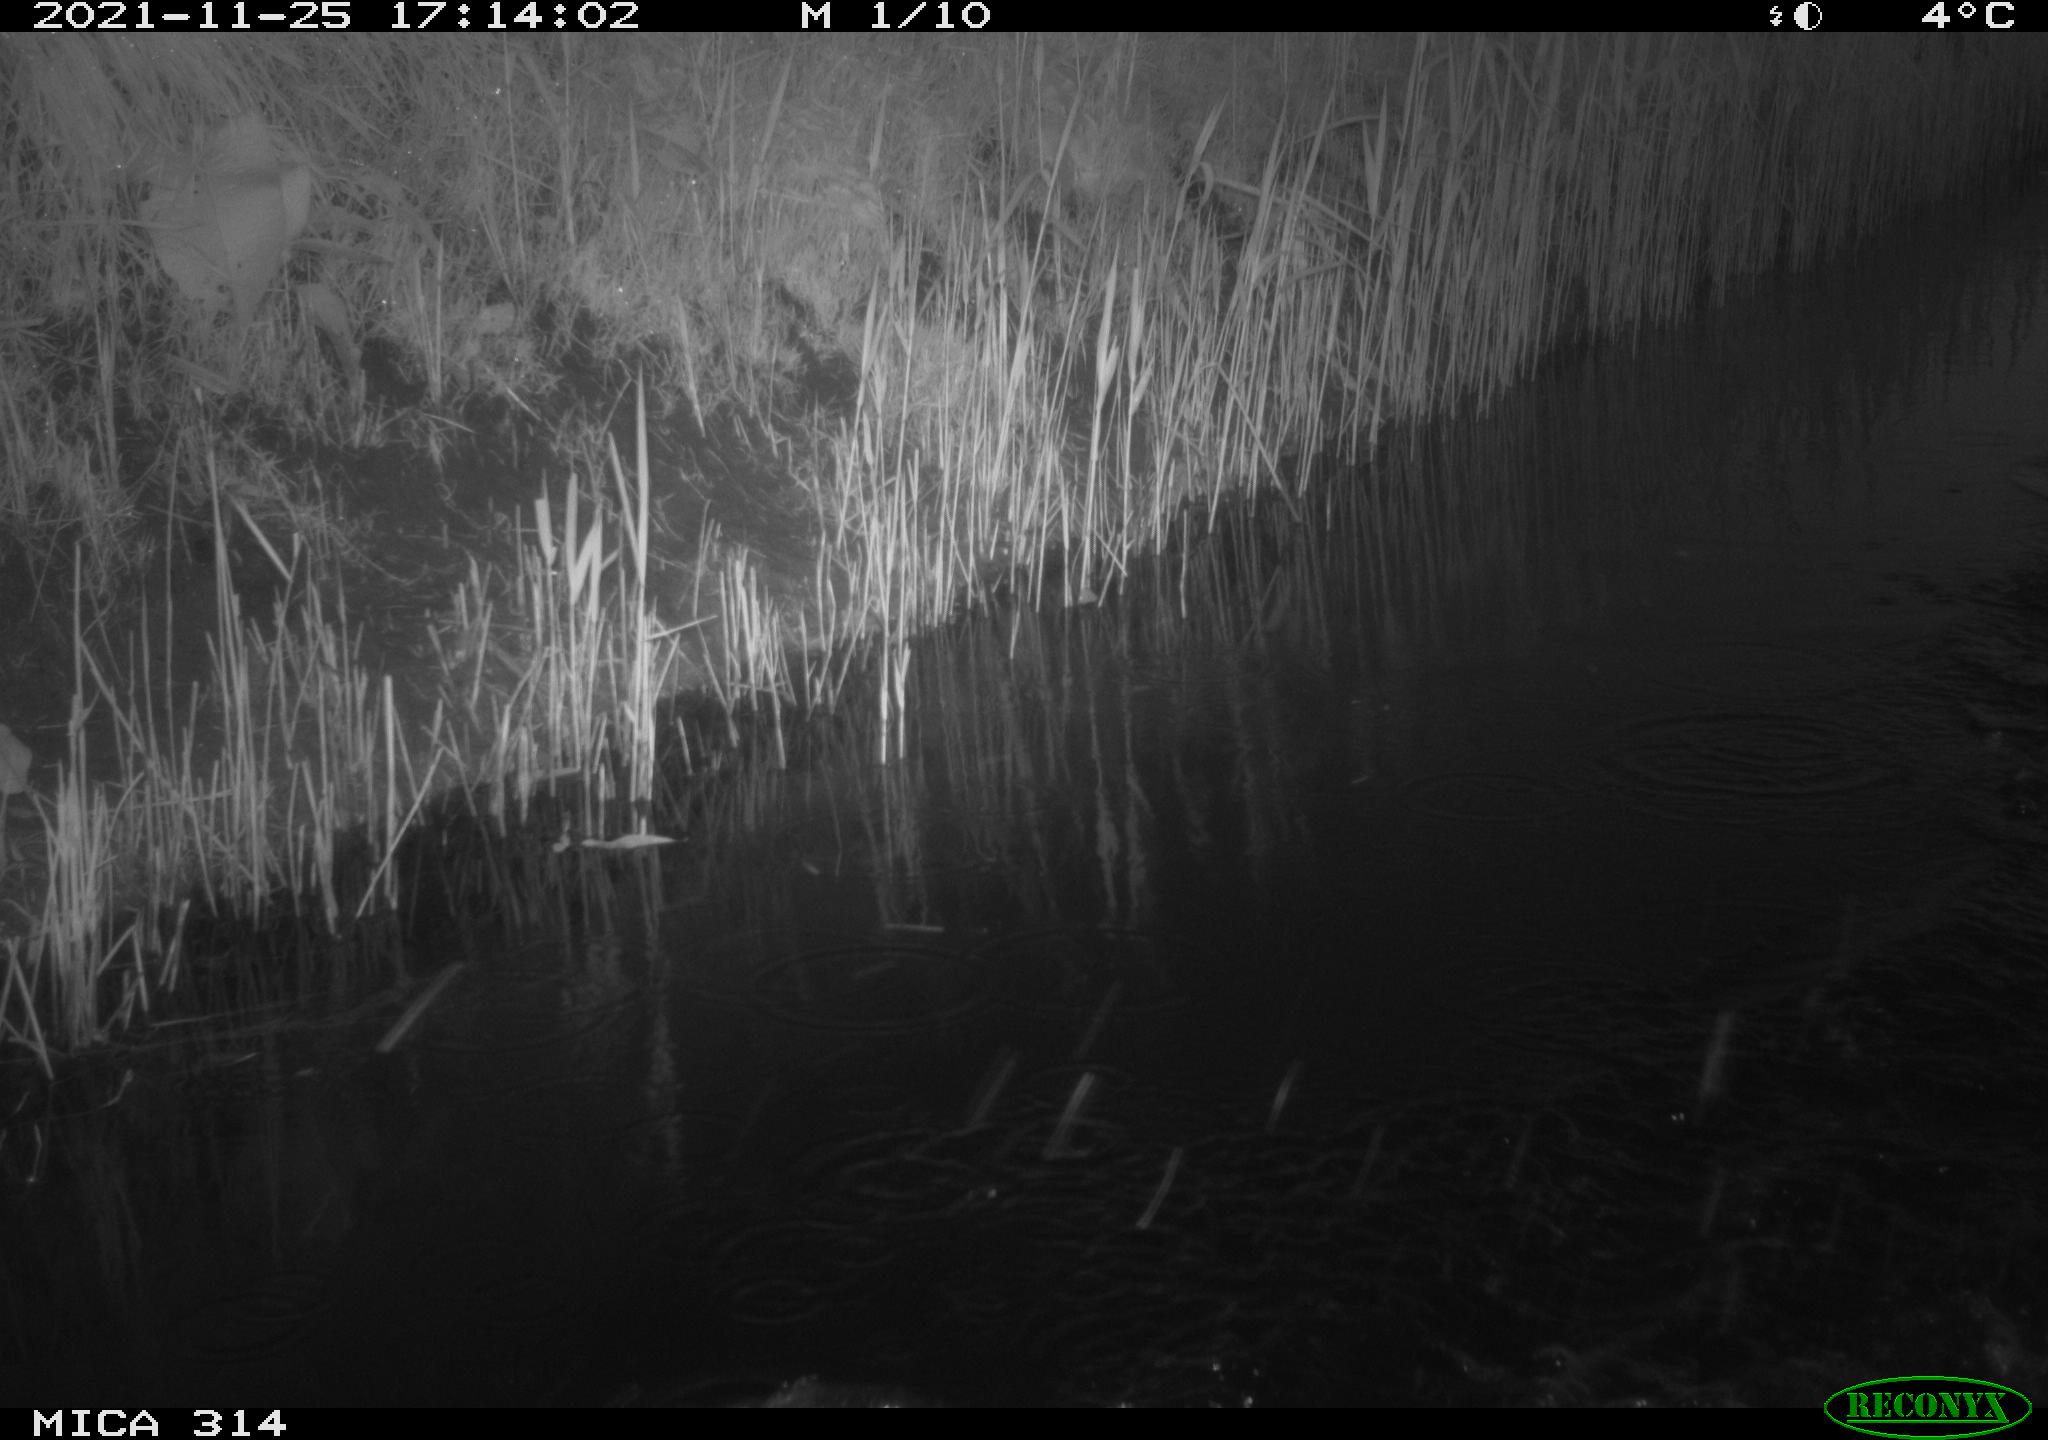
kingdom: Animalia
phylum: Chordata
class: Aves
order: Gruiformes
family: Rallidae
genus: Gallinula
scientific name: Gallinula chloropus
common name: Common moorhen
